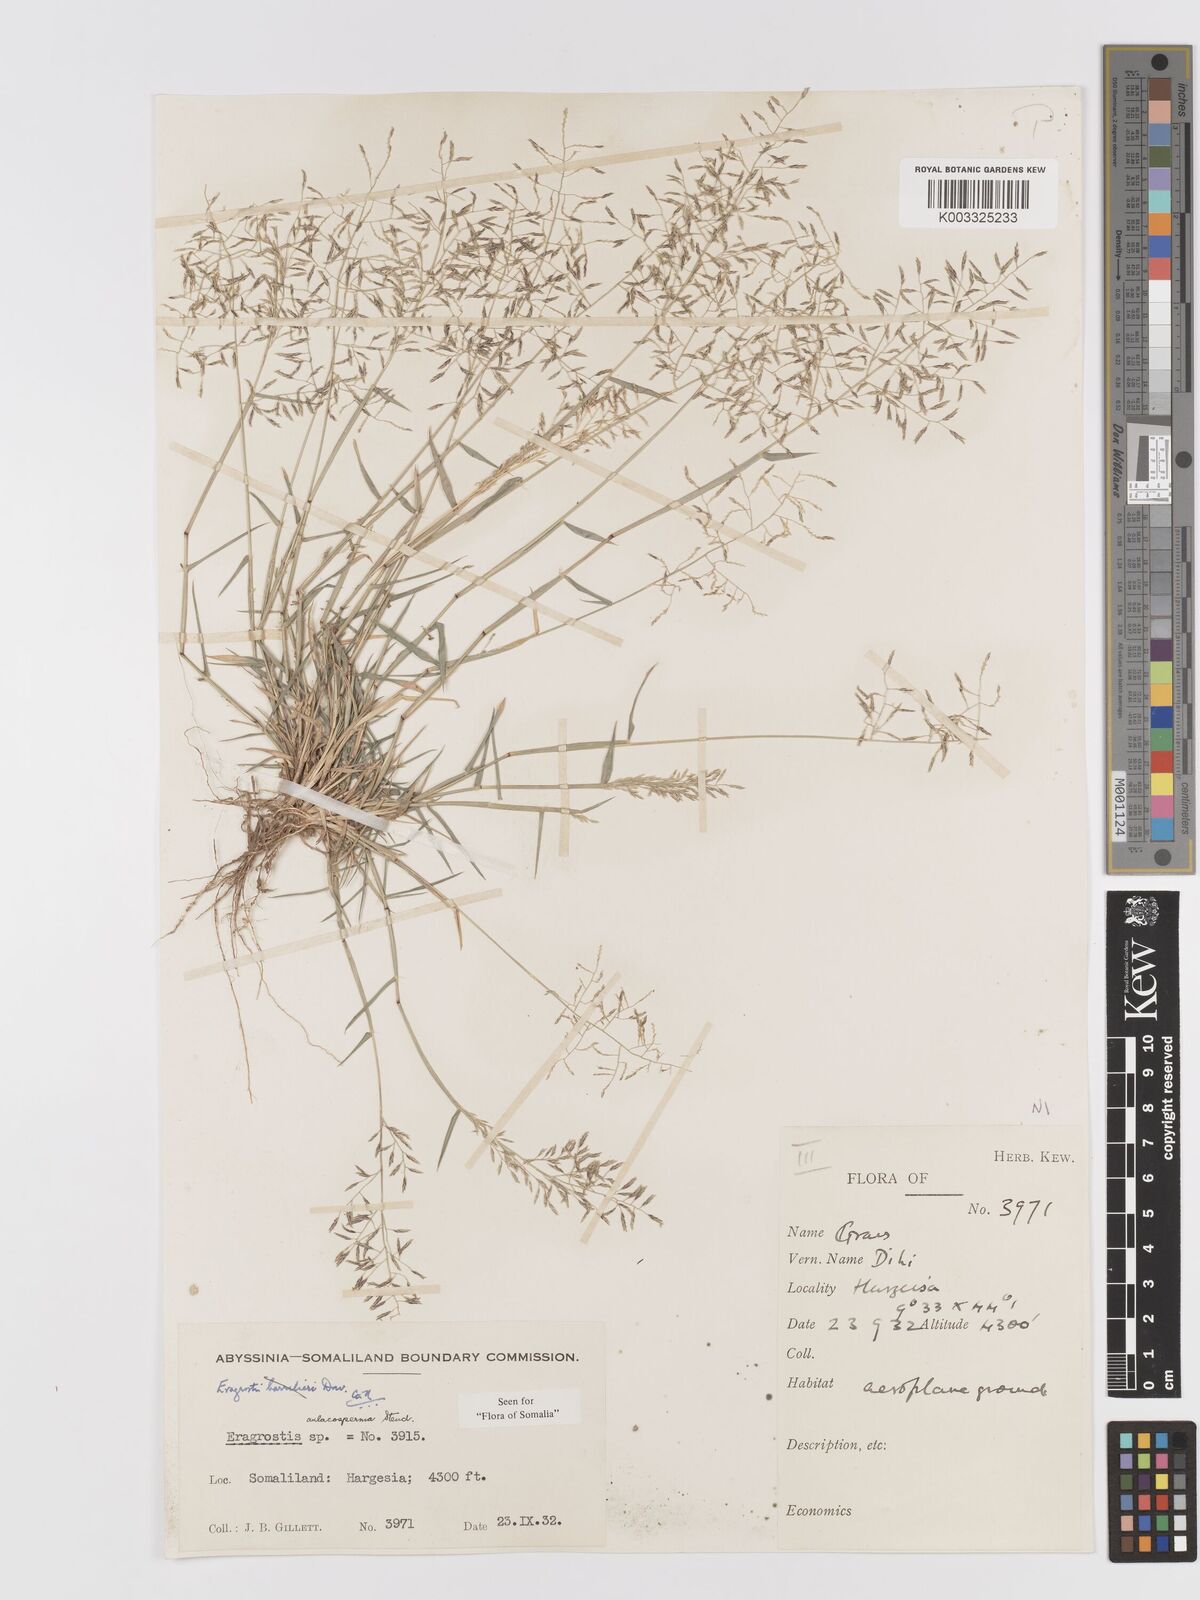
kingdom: Plantae
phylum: Tracheophyta
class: Liliopsida
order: Poales
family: Poaceae
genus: Eragrostis
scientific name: Eragrostis papposa
